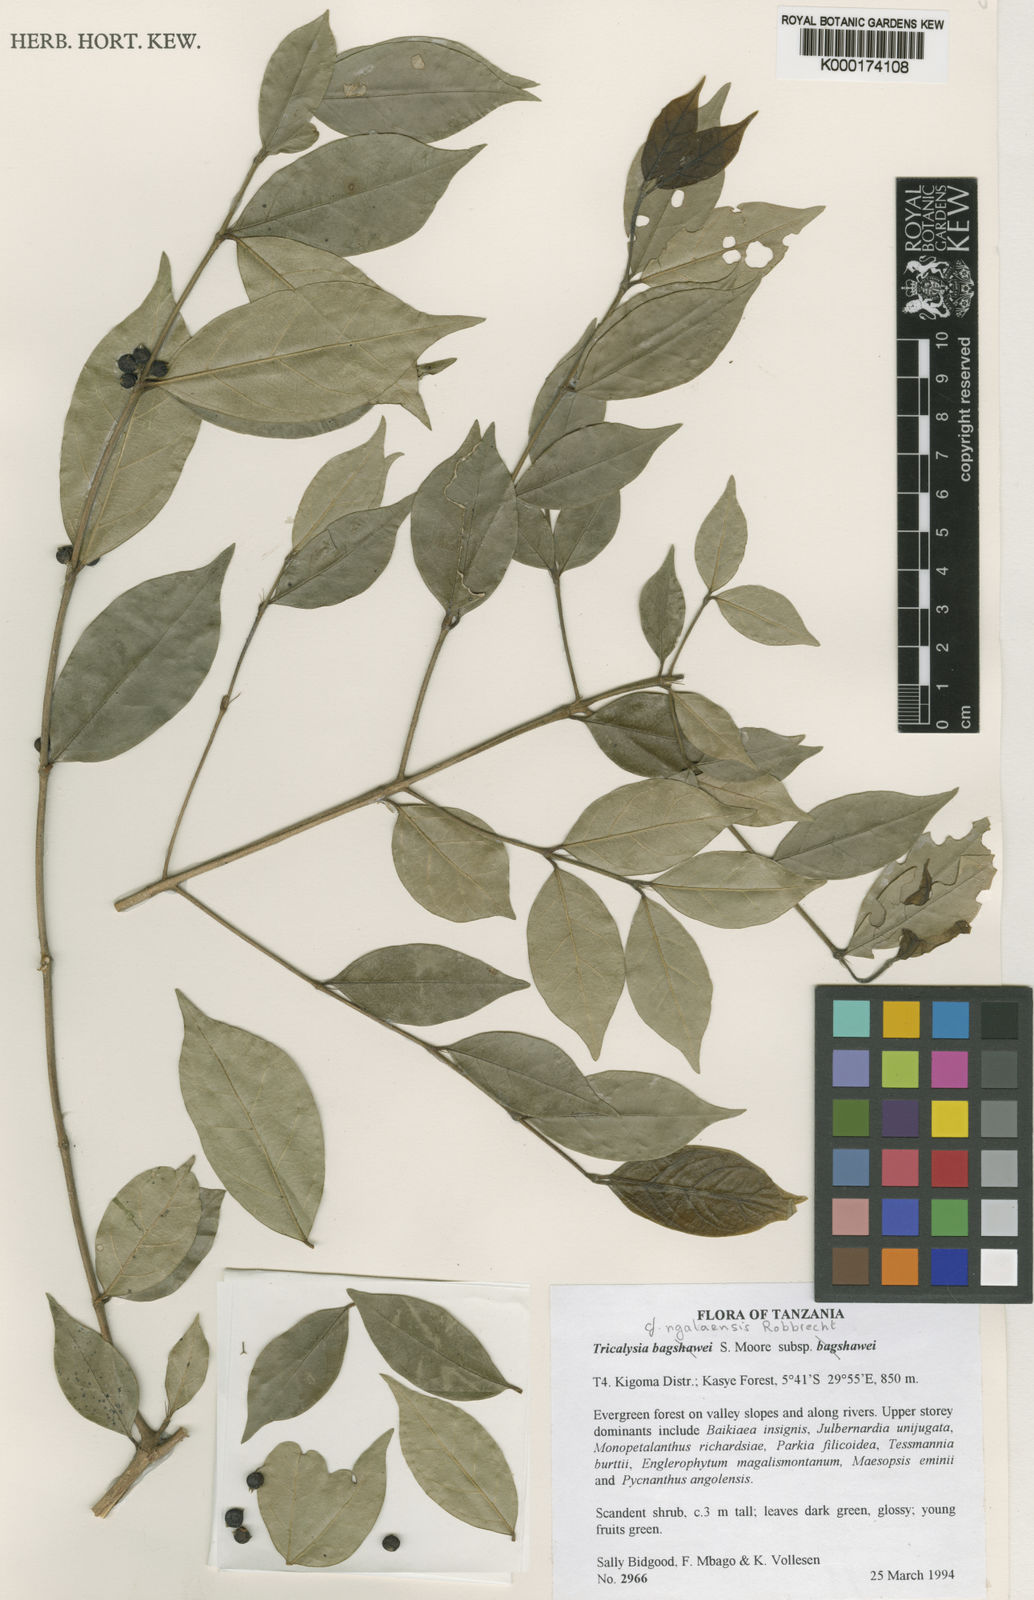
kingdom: Plantae
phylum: Tracheophyta
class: Magnoliopsida
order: Gentianales
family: Rubiaceae
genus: Empogona
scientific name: Empogona ngalaensis
